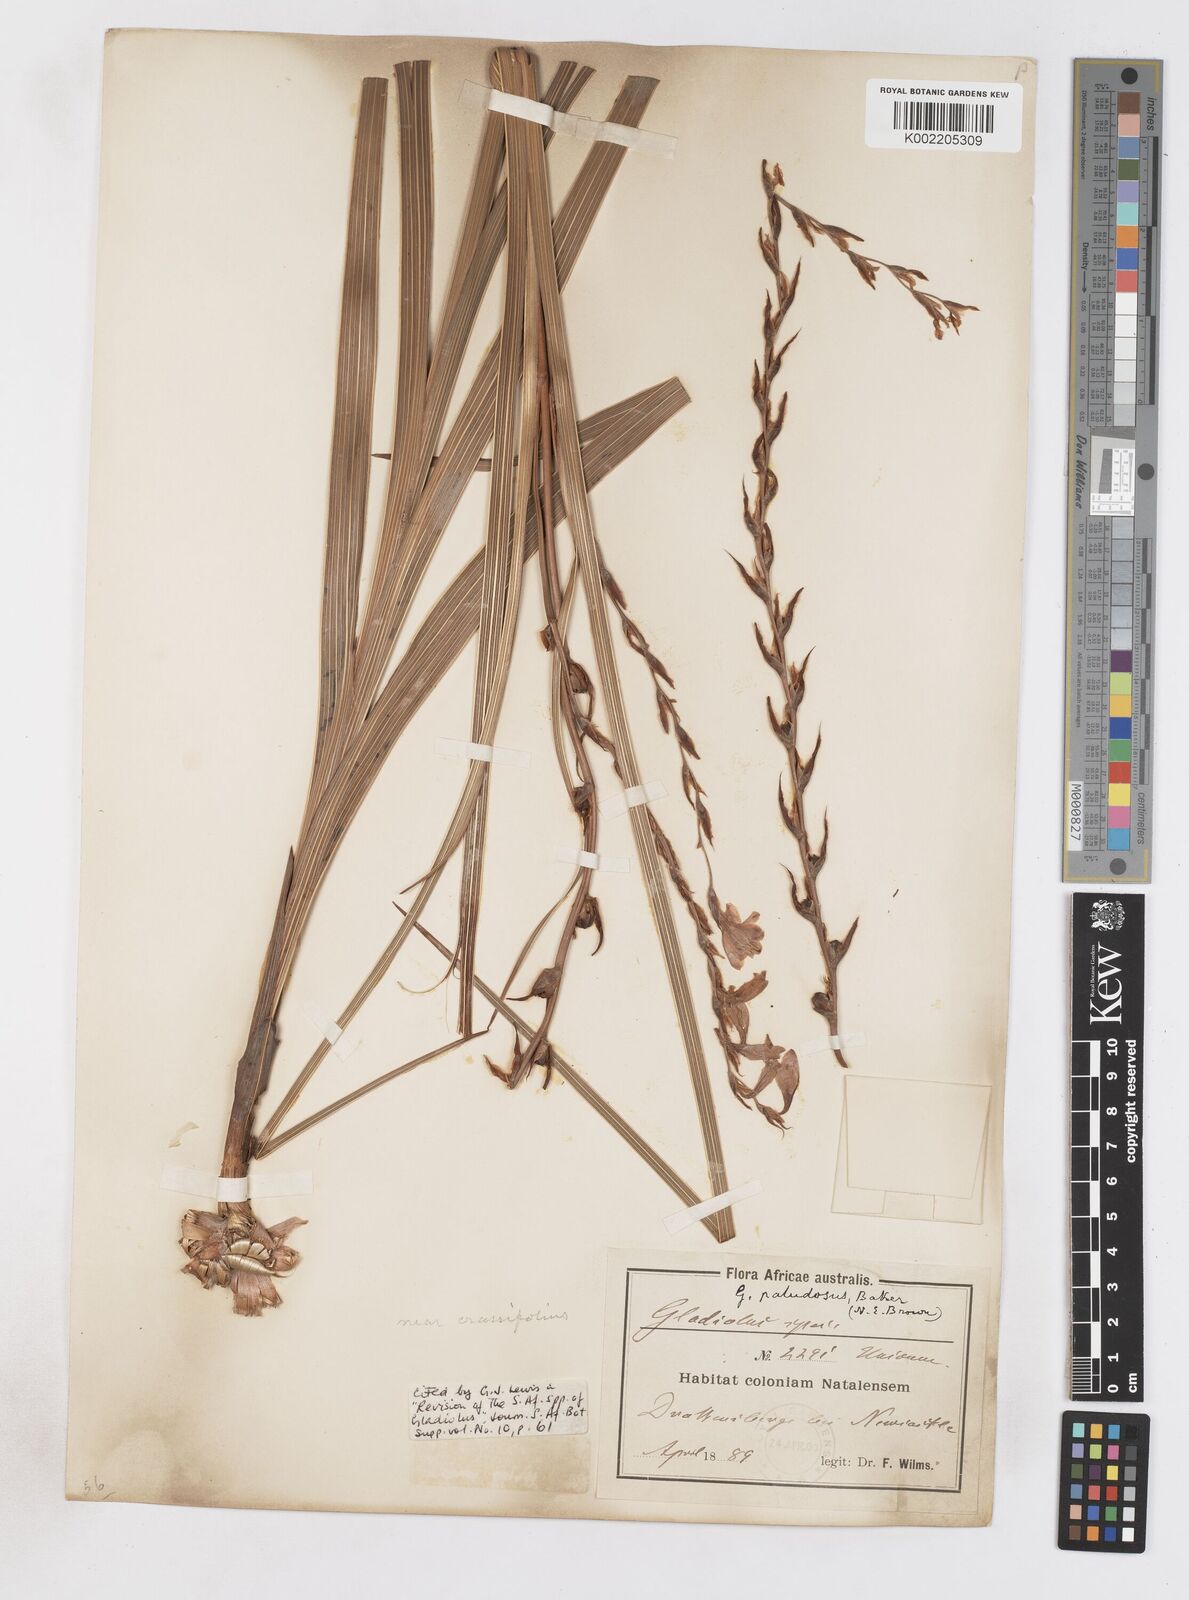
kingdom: Plantae
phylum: Tracheophyta
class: Liliopsida
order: Asparagales
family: Iridaceae
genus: Gladiolus
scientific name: Gladiolus crassifolius
